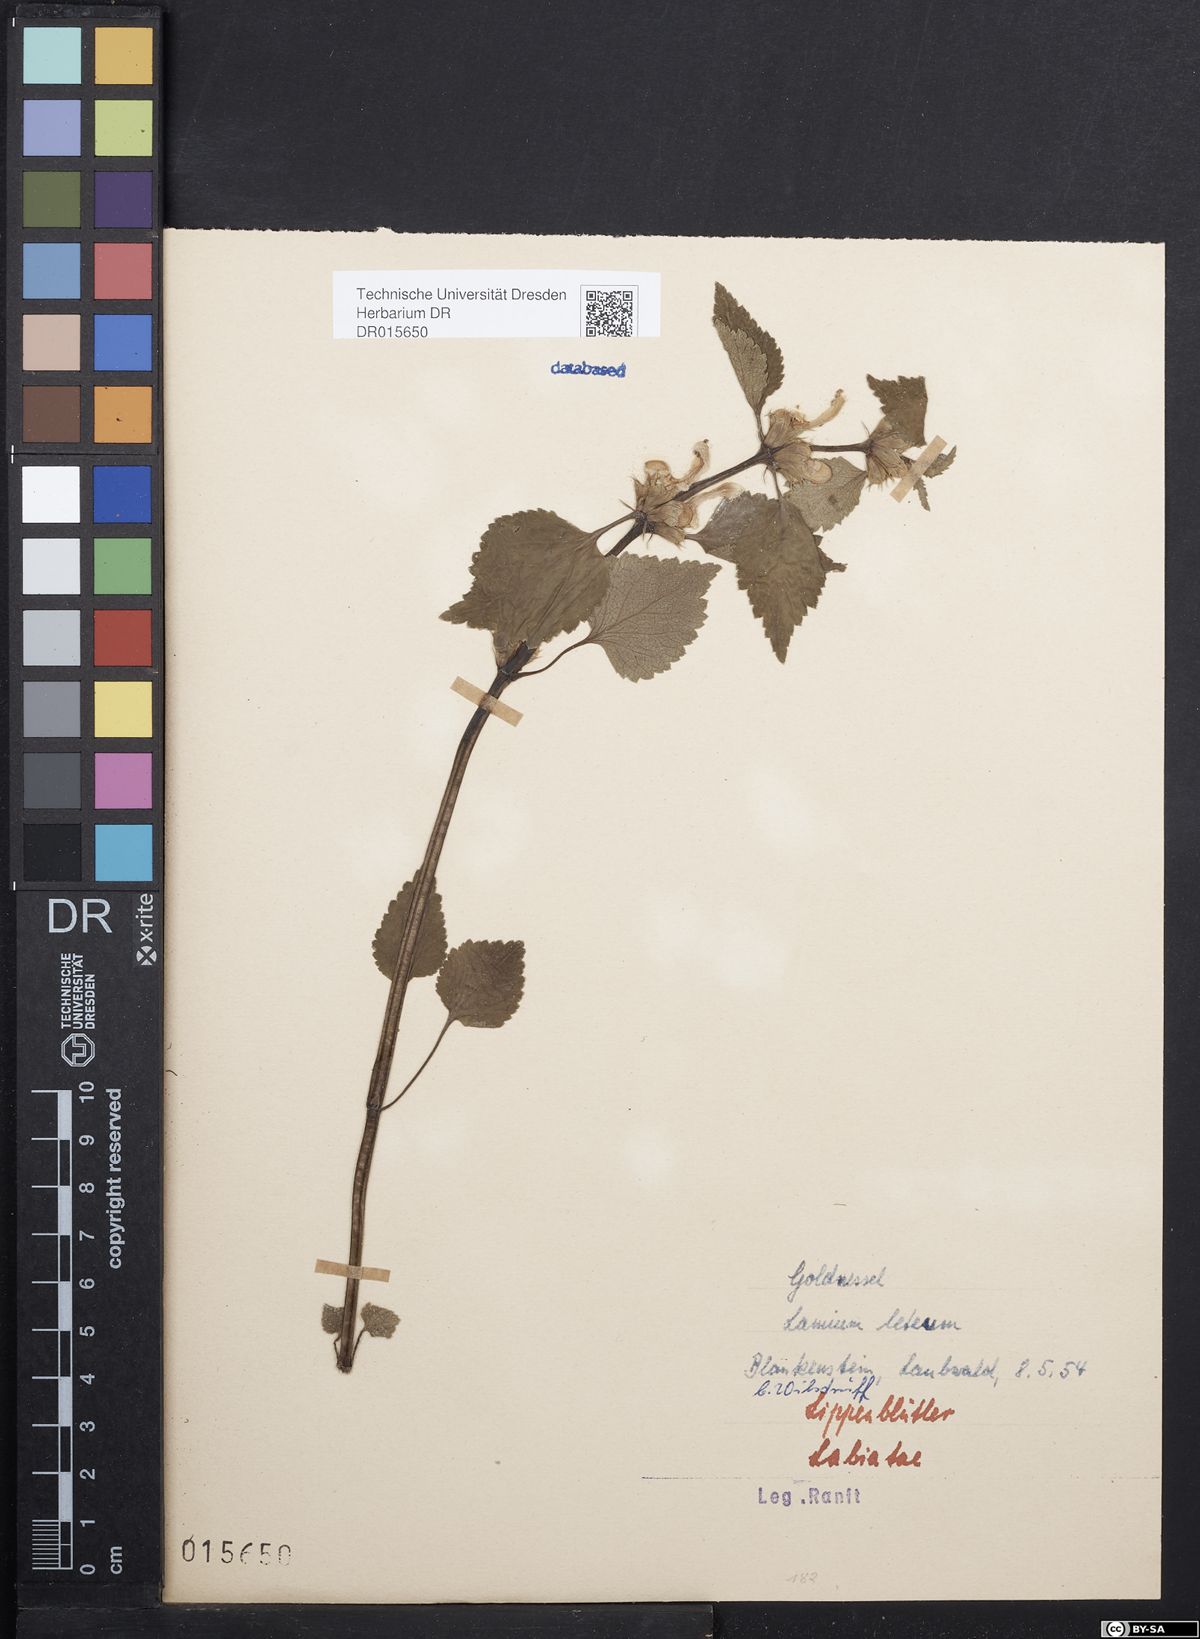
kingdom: Plantae
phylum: Tracheophyta
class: Magnoliopsida
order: Lamiales
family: Lamiaceae
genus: Lamium
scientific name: Lamium galeobdolon
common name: Yellow archangel
